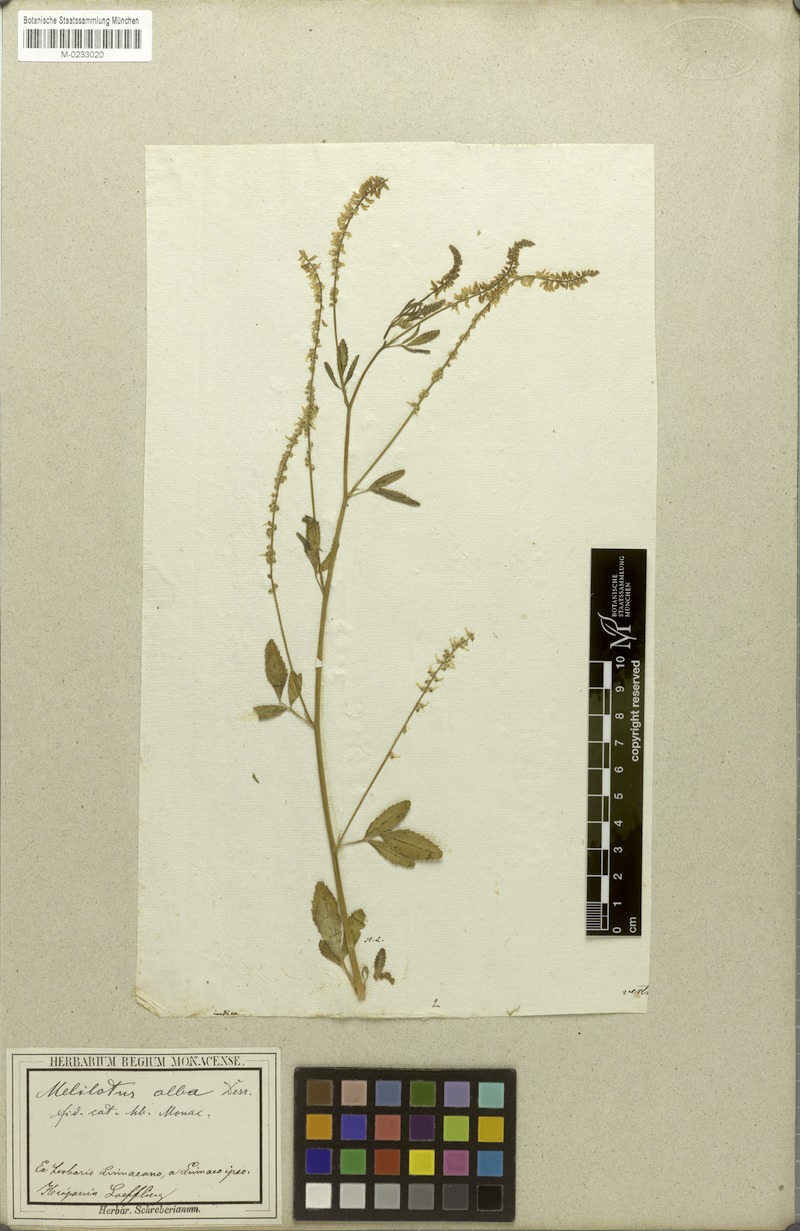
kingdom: Plantae
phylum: Tracheophyta
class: Magnoliopsida
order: Fabales
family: Fabaceae
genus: Melilotus
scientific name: Melilotus albus
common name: White melilot
